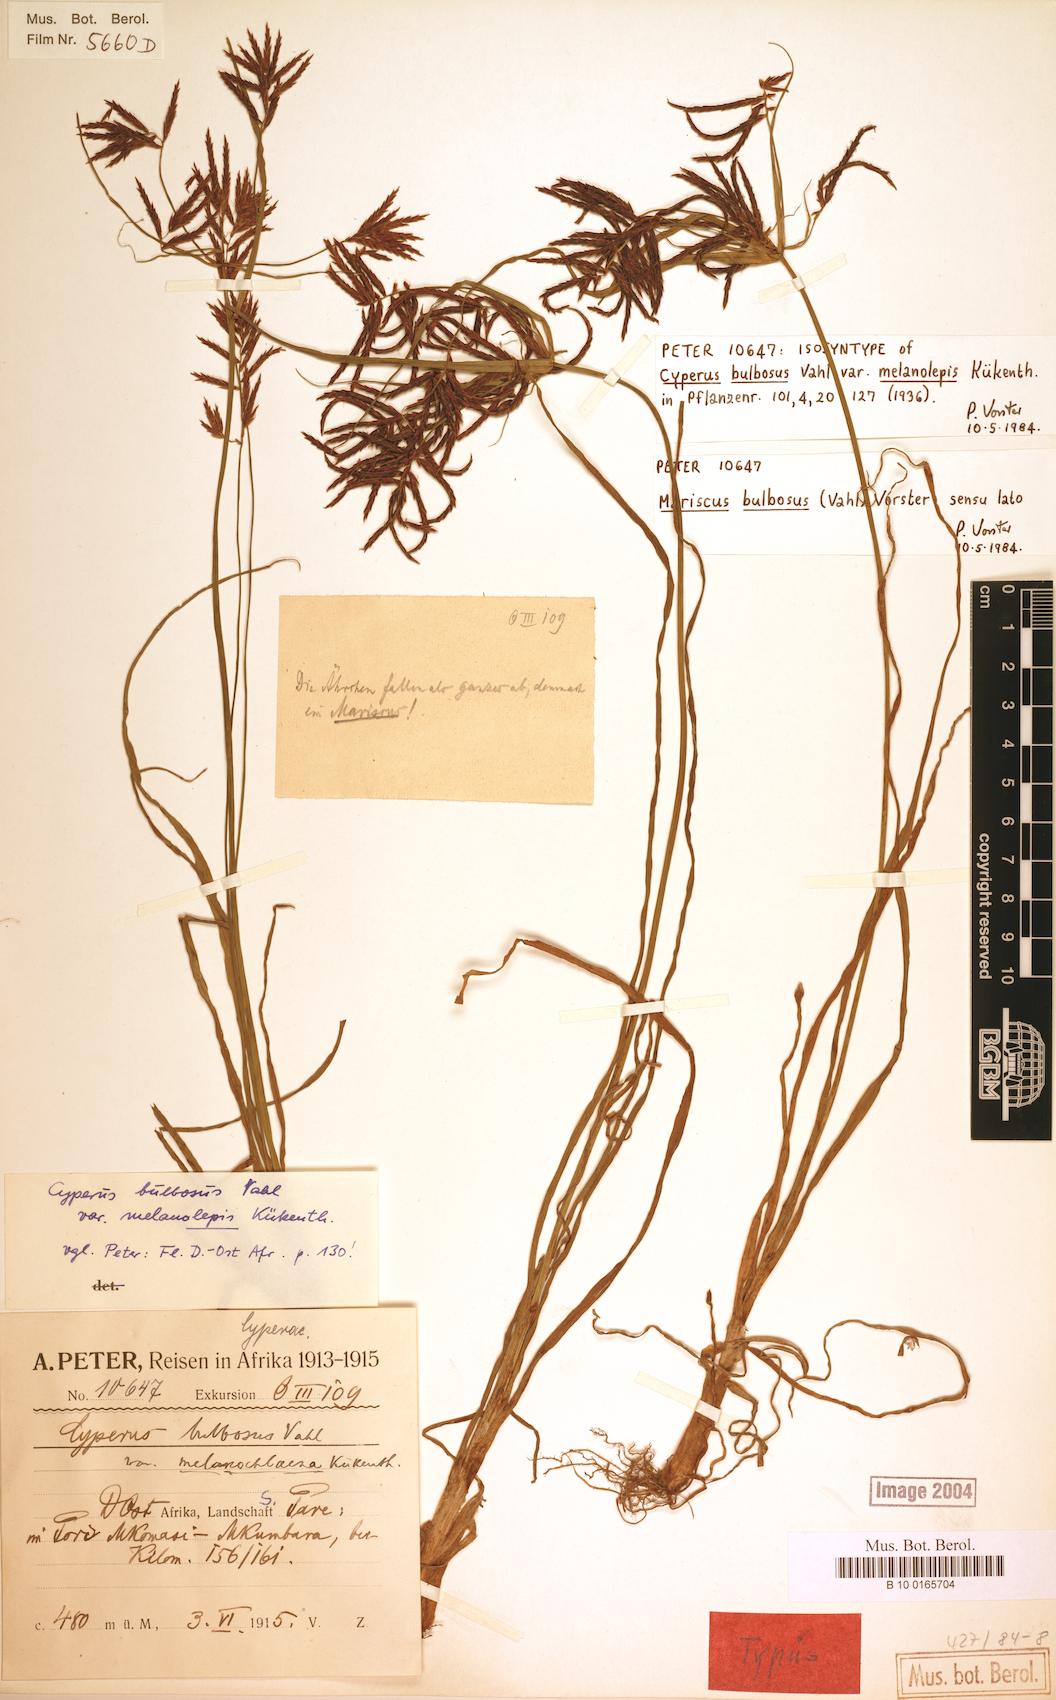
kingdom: Plantae
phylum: Tracheophyta
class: Liliopsida
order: Poales
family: Cyperaceae
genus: Cyperus
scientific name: Cyperus bulbosus
